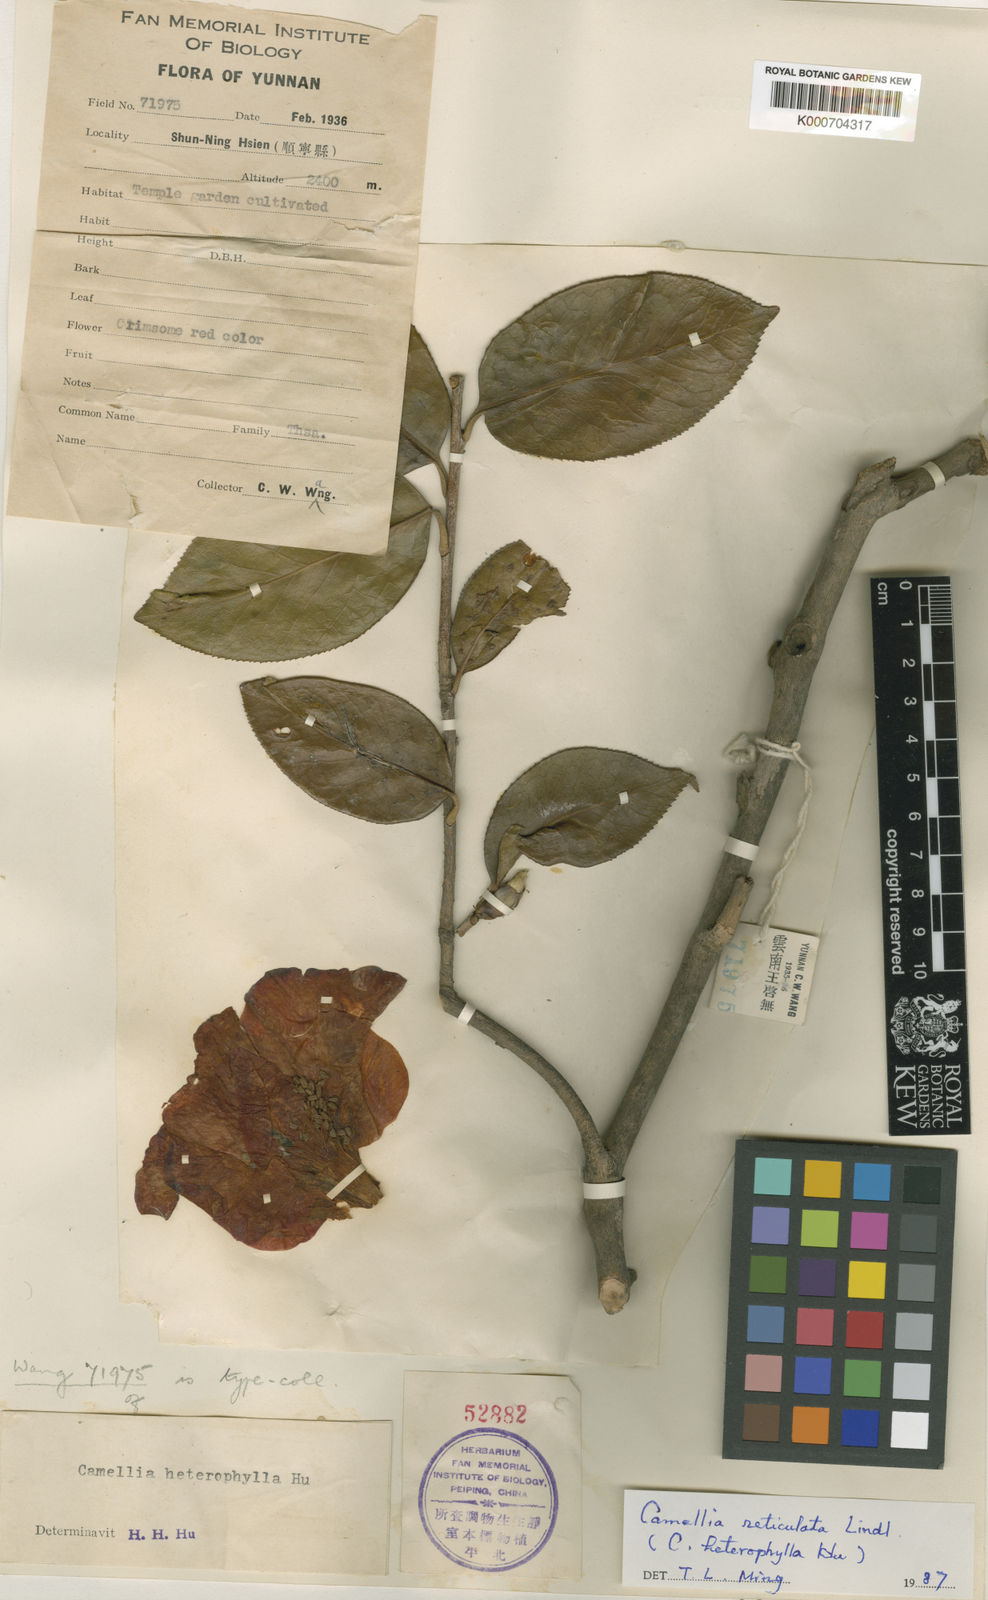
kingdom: Plantae
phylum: Tracheophyta
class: Magnoliopsida
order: Ericales
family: Theaceae
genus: Camellia
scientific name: Camellia reticulata
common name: To-tsubaki
